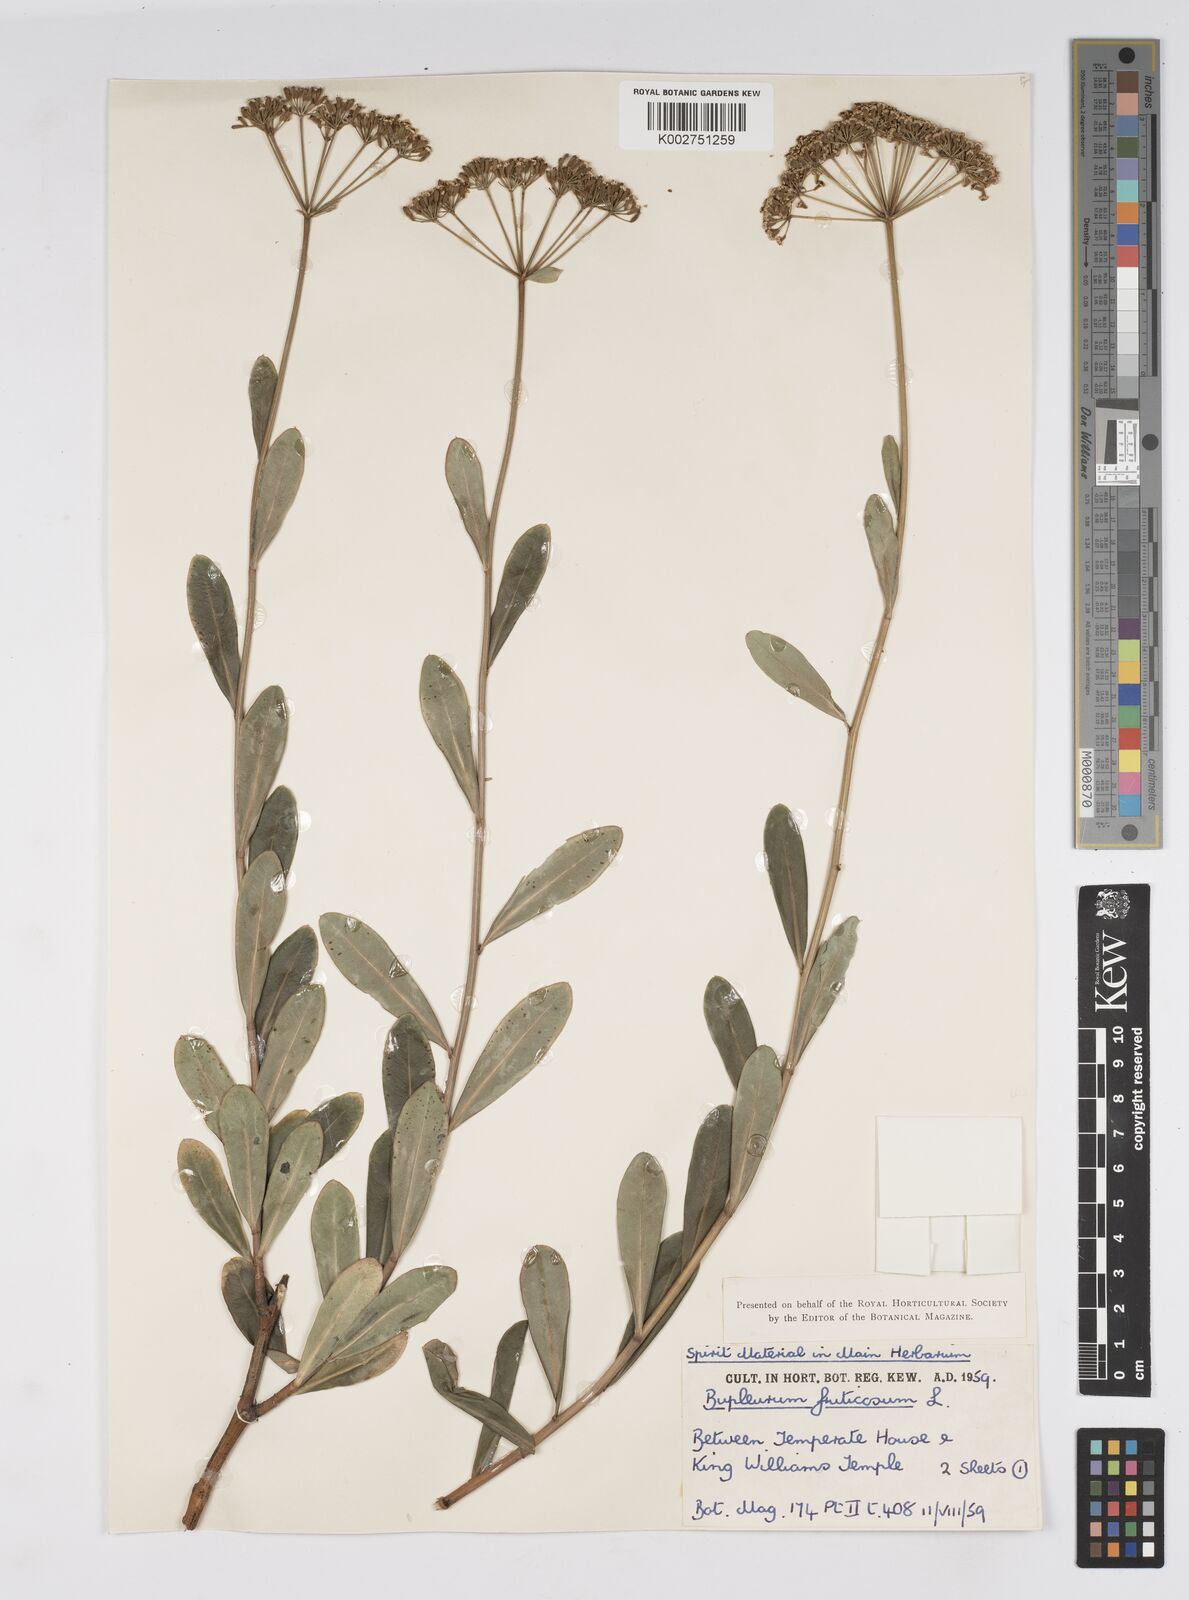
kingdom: Plantae
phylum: Tracheophyta
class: Magnoliopsida
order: Apiales
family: Apiaceae
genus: Bupleurum
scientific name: Bupleurum fruticosum
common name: Shrubby hare's-ear
